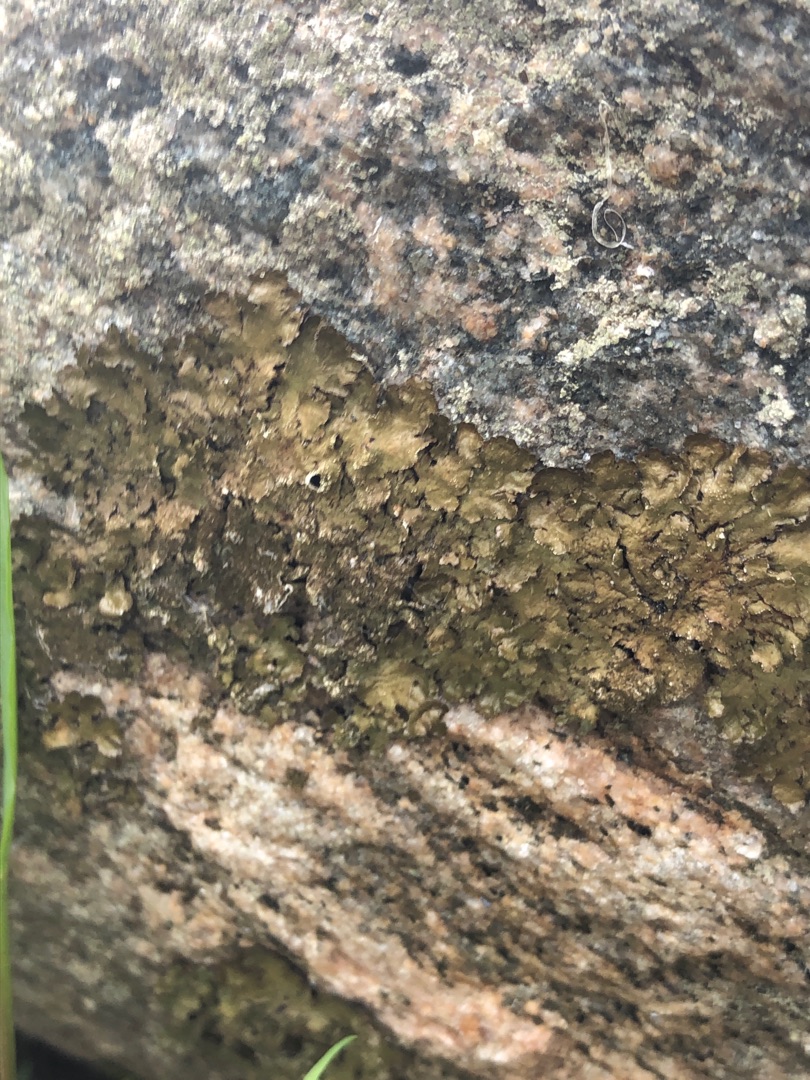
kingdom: Fungi
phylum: Ascomycota
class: Lecanoromycetes
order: Lecanorales
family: Parmeliaceae
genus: Melanelixia
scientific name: Melanelixia fuliginosa
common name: Sod-skållav
